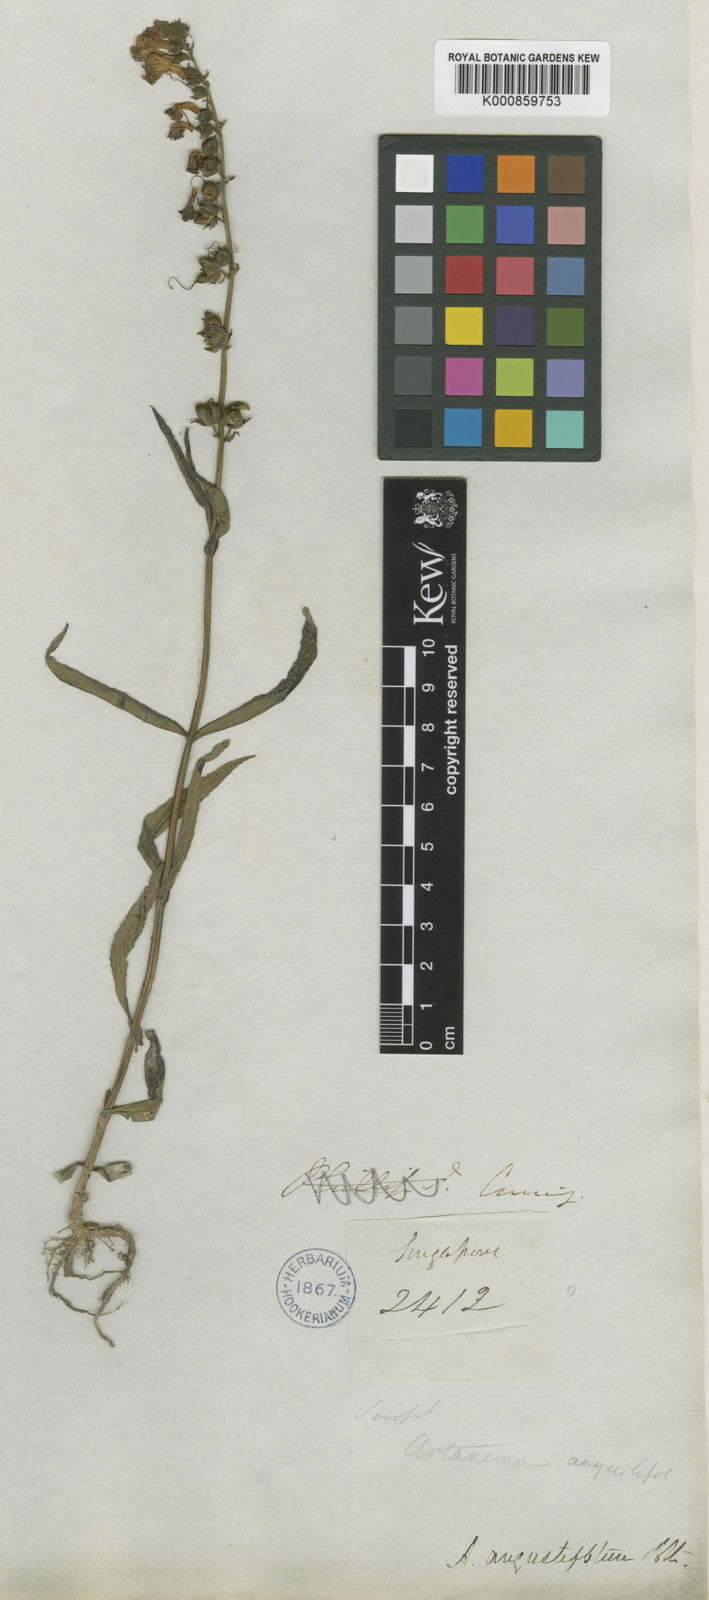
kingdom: Plantae
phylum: Tracheophyta
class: Magnoliopsida
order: Lamiales
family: Linderniaceae
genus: Artanema
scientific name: Artanema angustifolium
